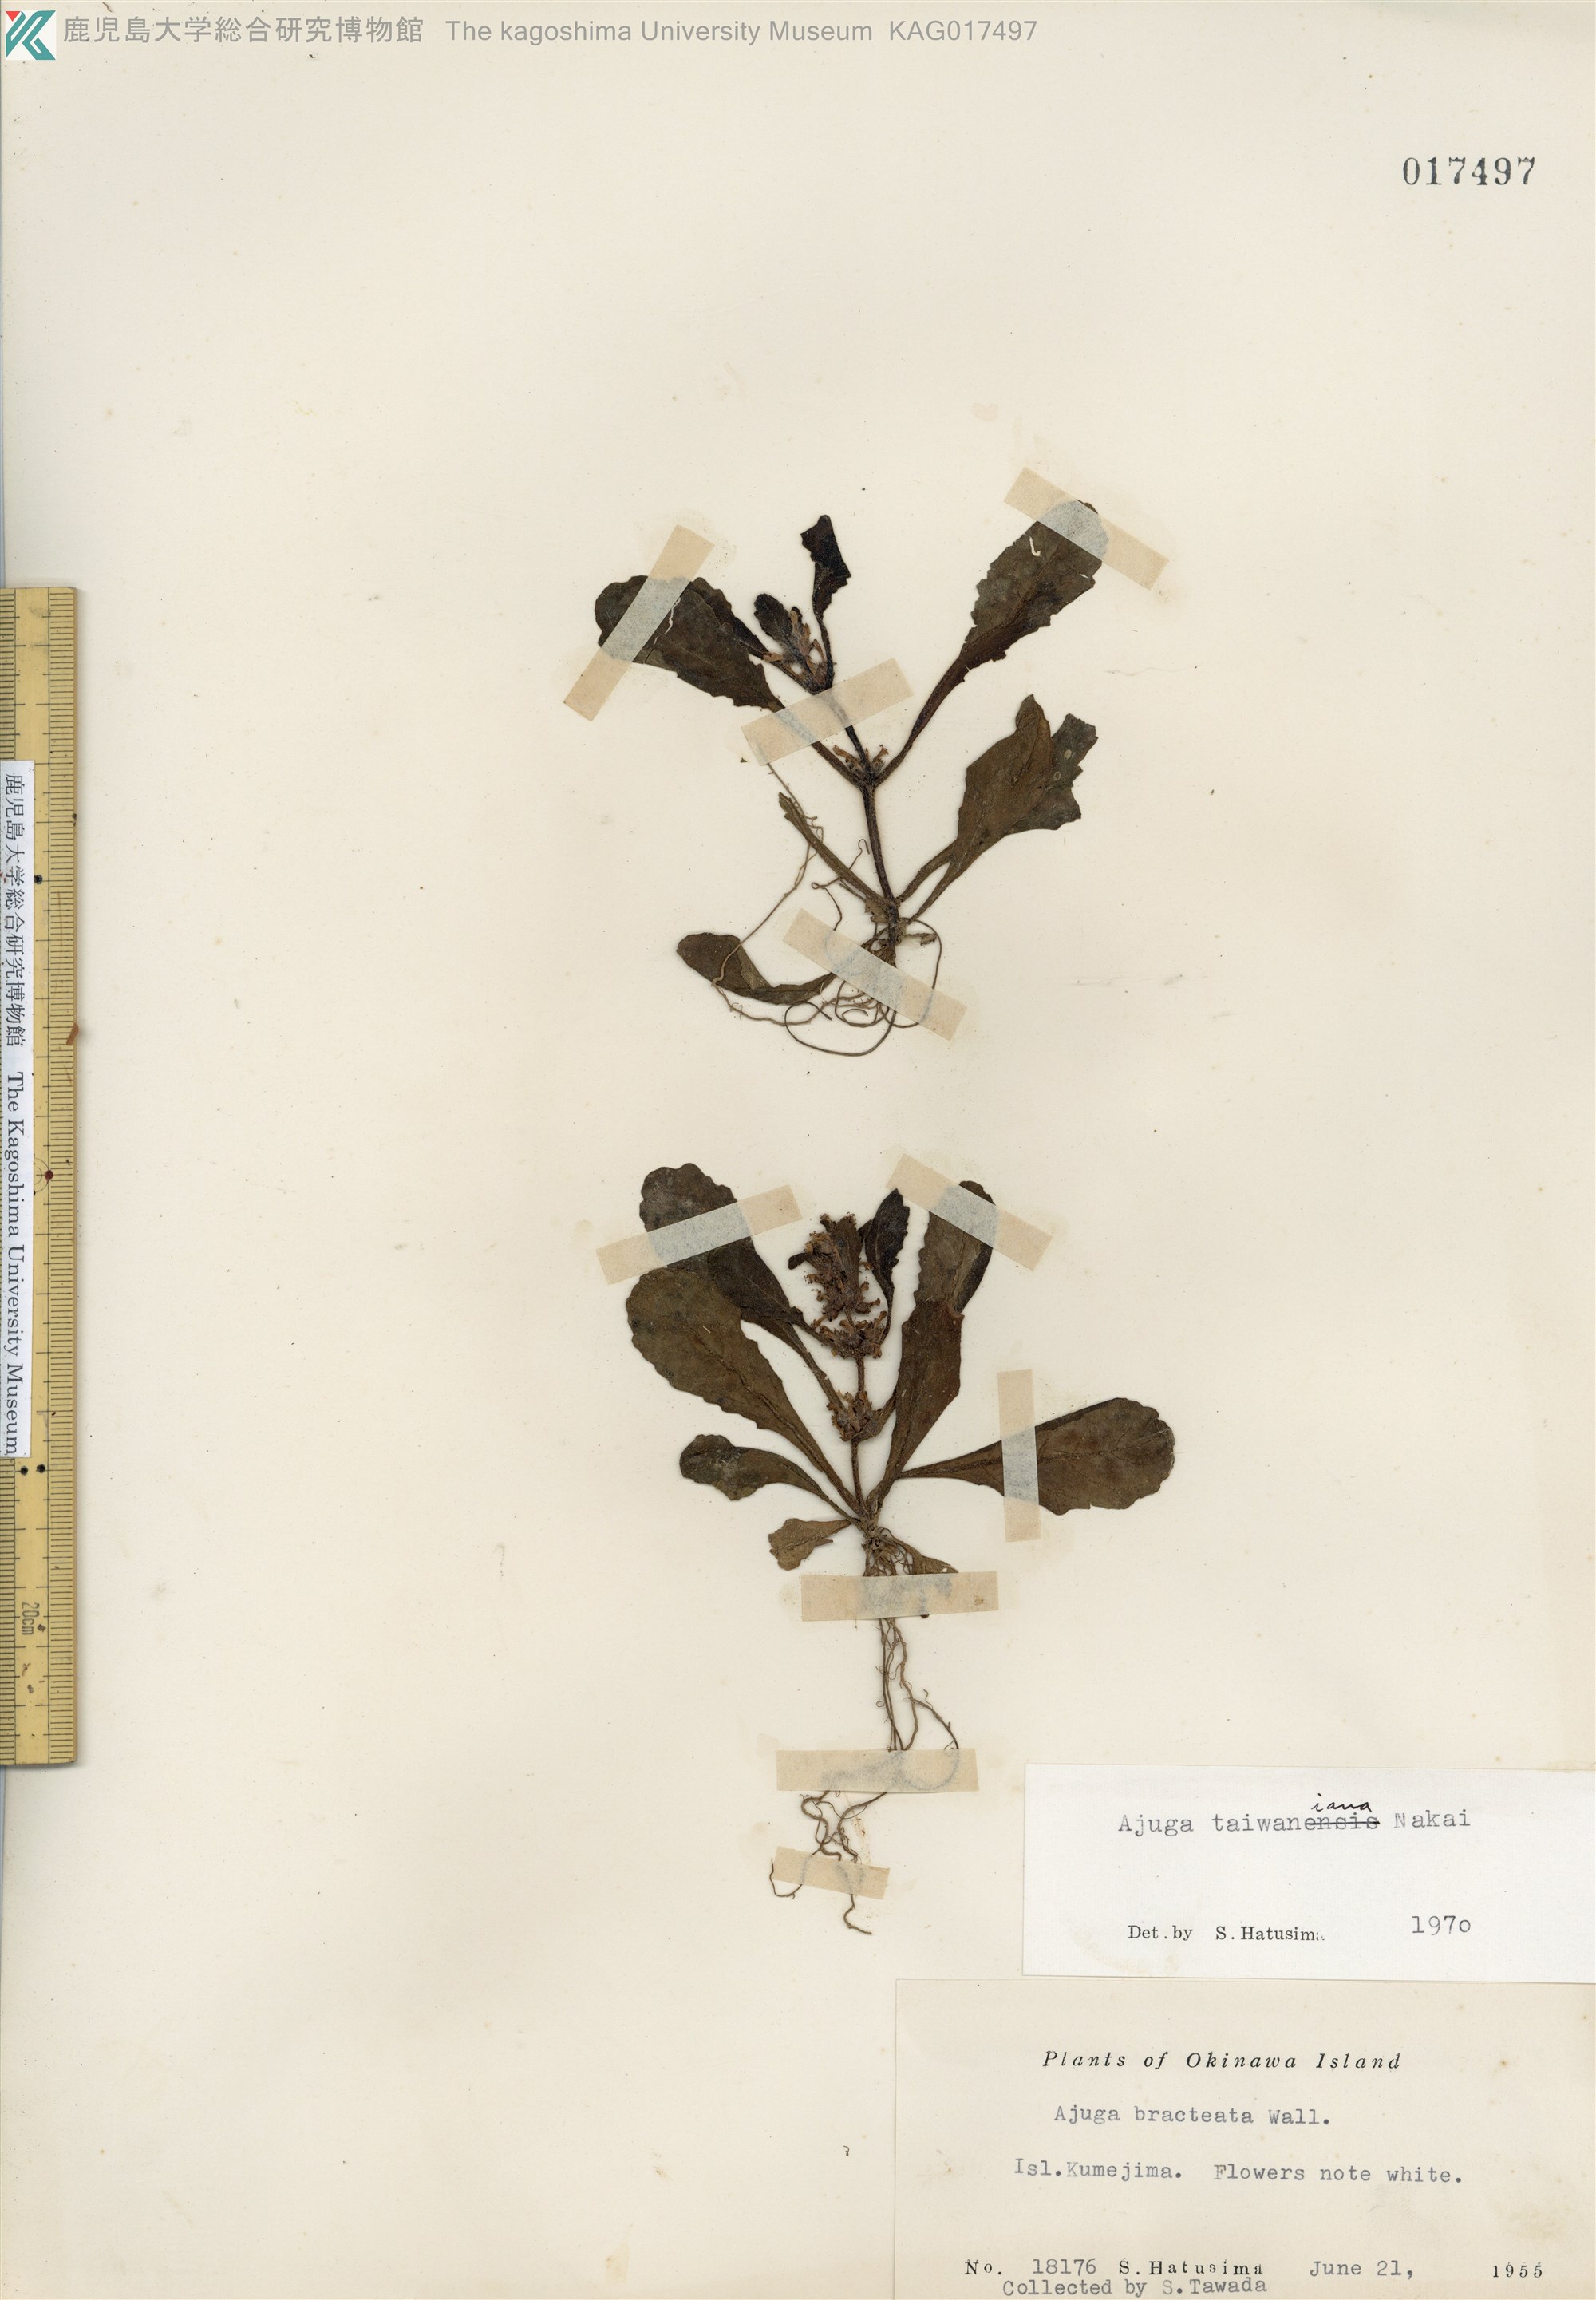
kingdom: Plantae
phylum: Tracheophyta
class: Magnoliopsida
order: Lamiales
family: Lamiaceae
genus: Ajuga
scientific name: Ajuga taiwanensis
